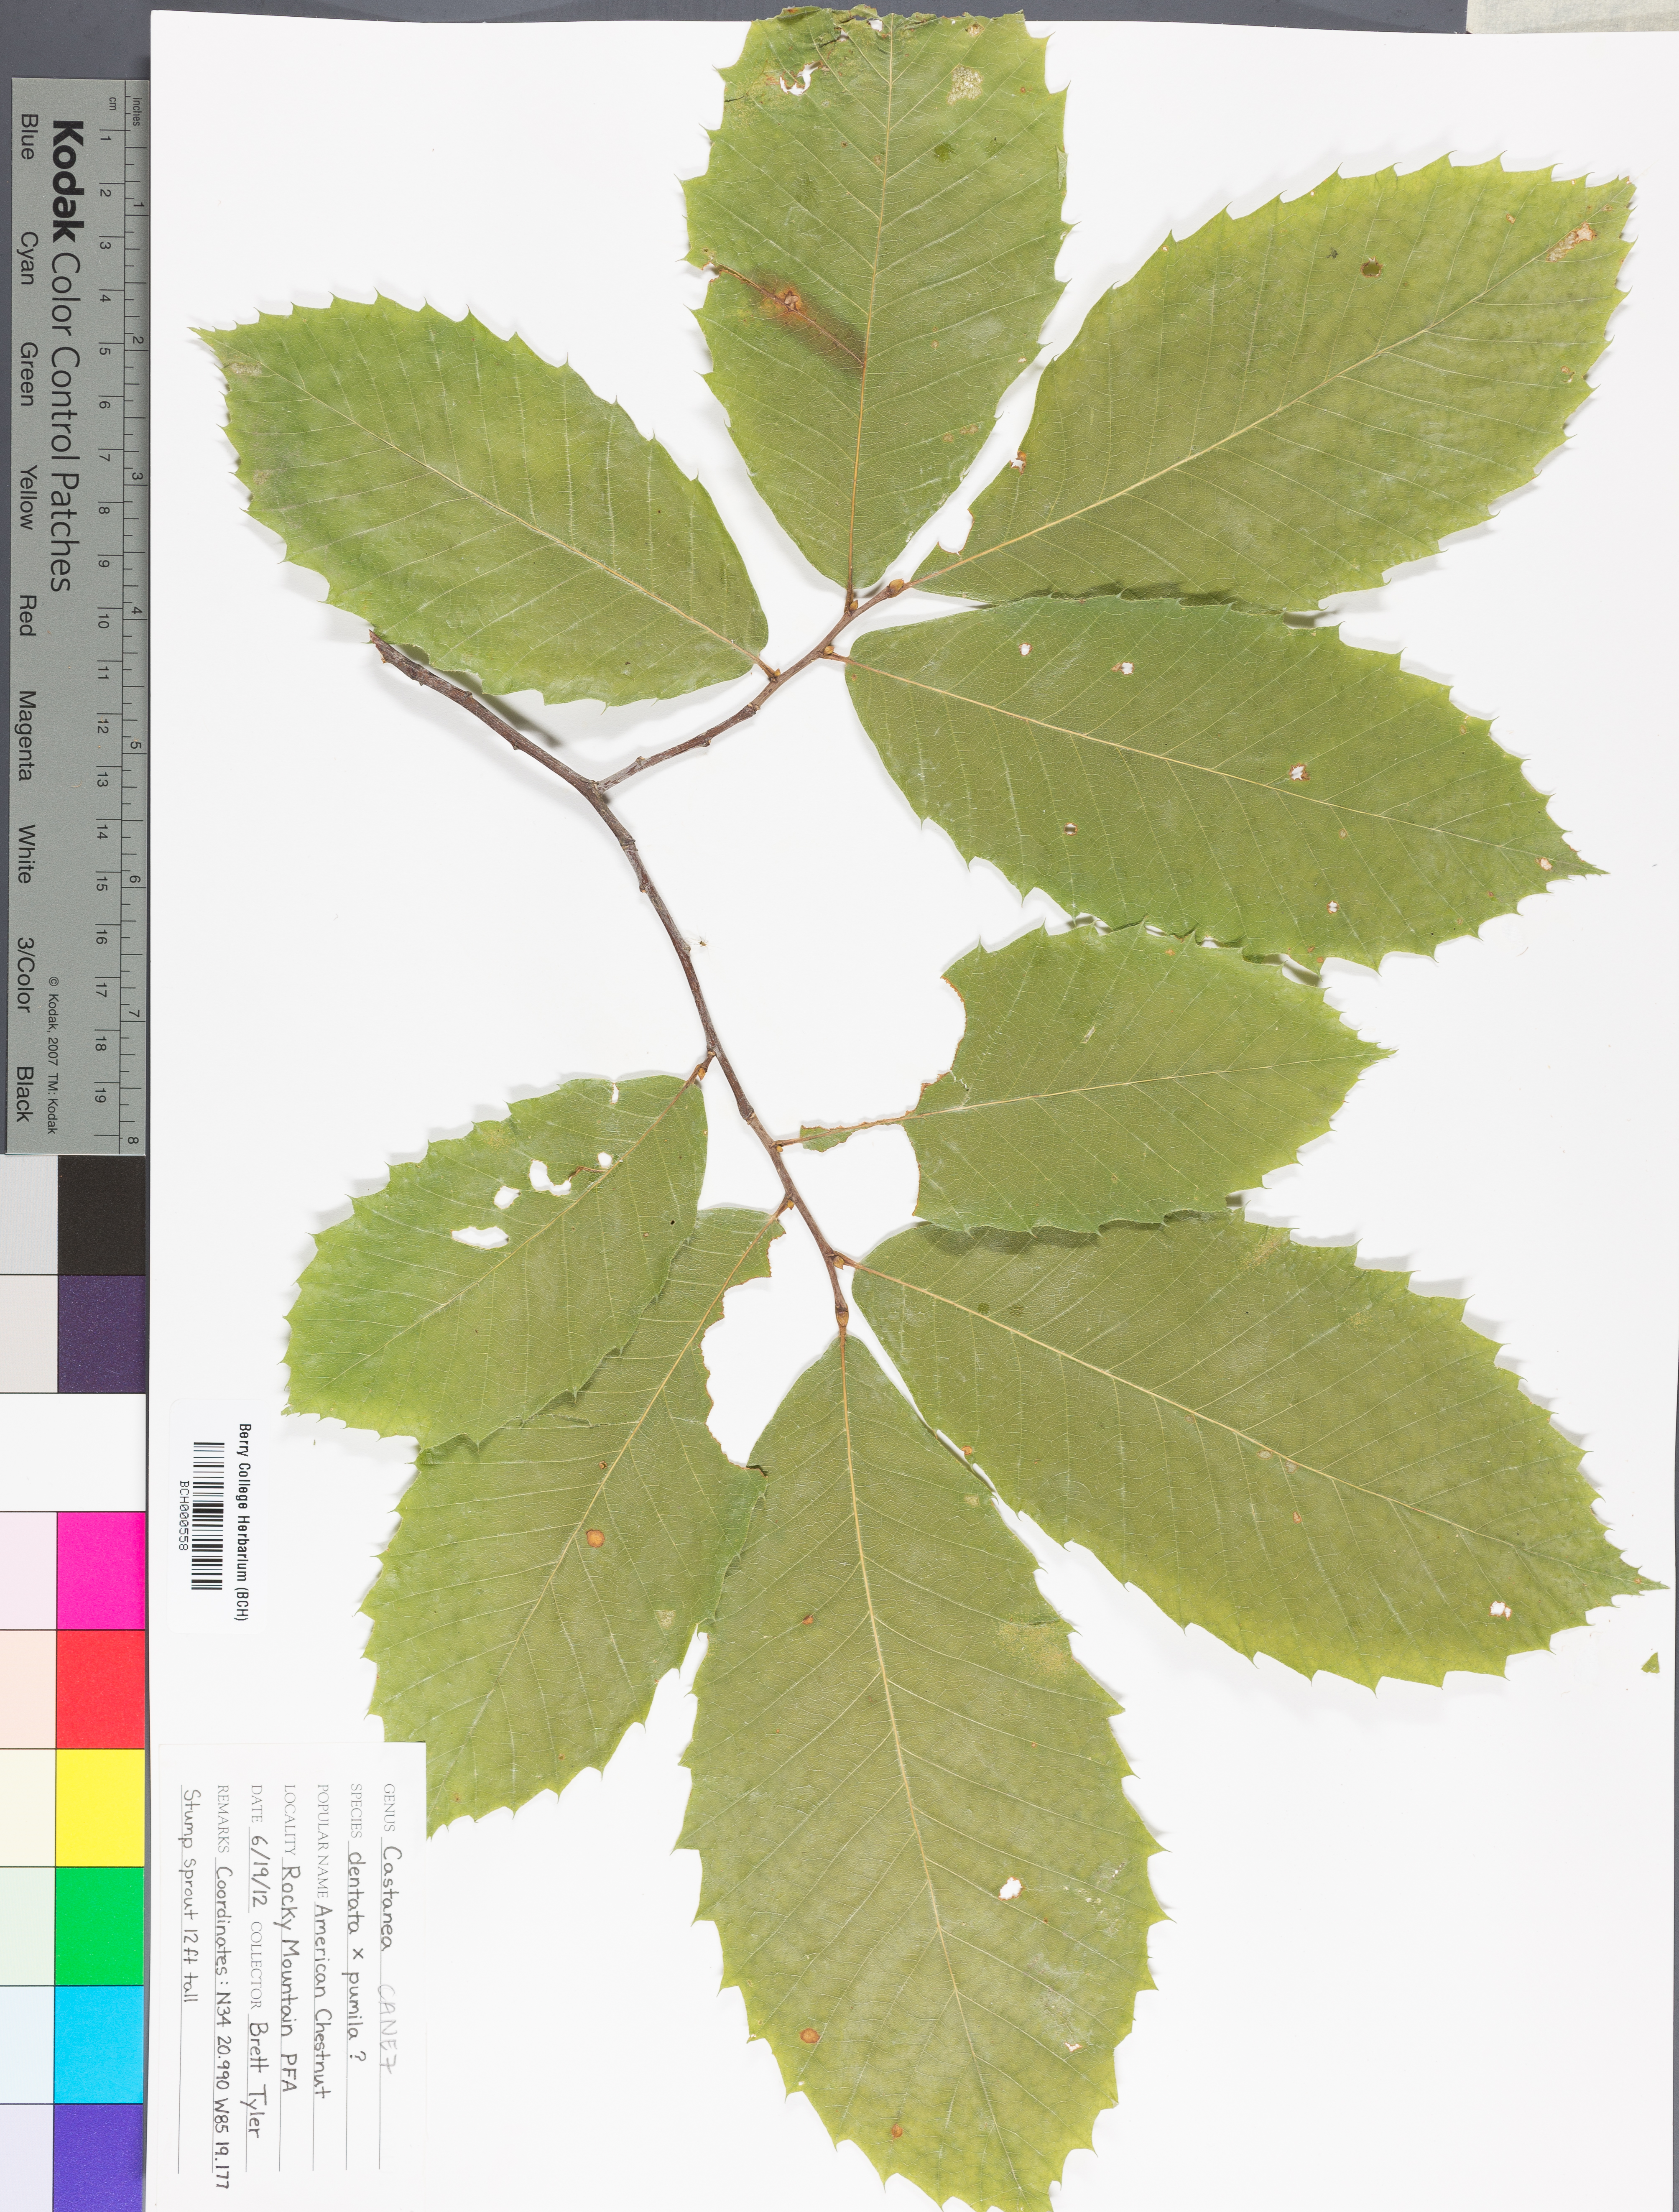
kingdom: Plantae
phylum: Tracheophyta
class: Magnoliopsida
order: Fagales
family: Fagaceae
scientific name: Fagaceae
